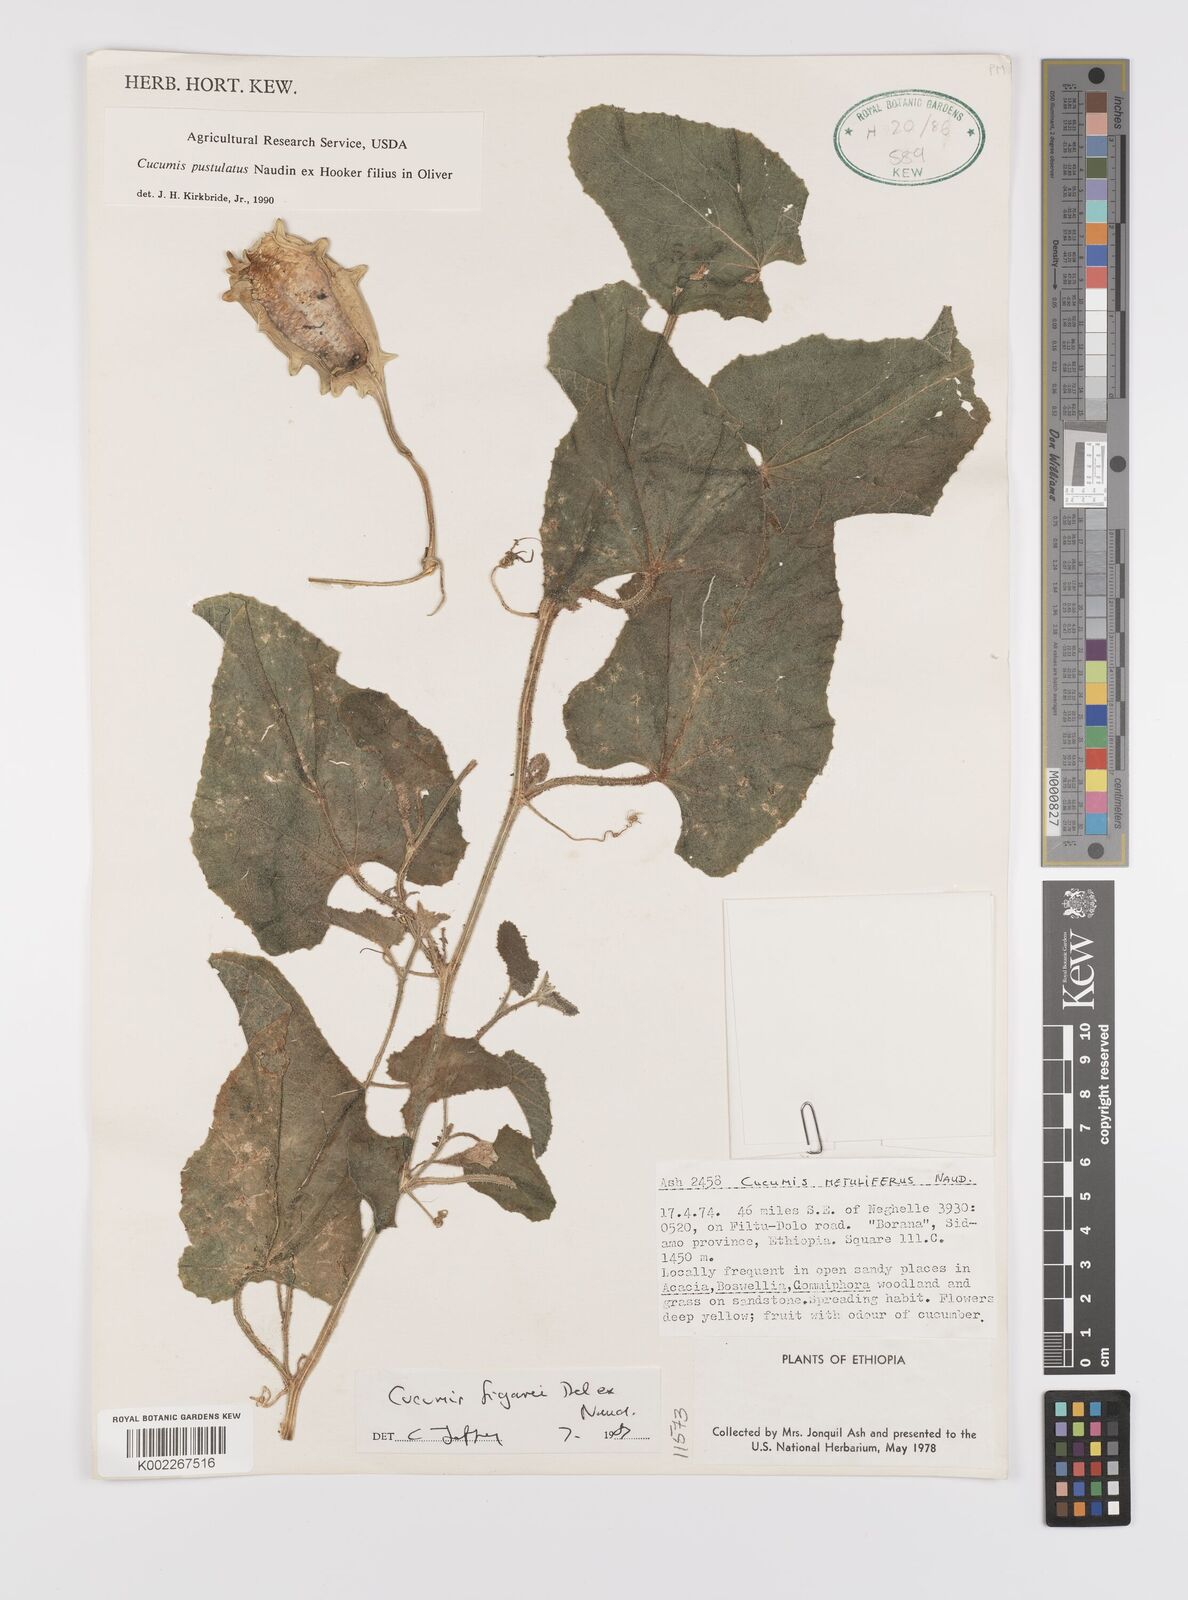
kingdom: Plantae
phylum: Tracheophyta
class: Magnoliopsida
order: Cucurbitales
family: Cucurbitaceae
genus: Cucumis
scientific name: Cucumis pustulatus
